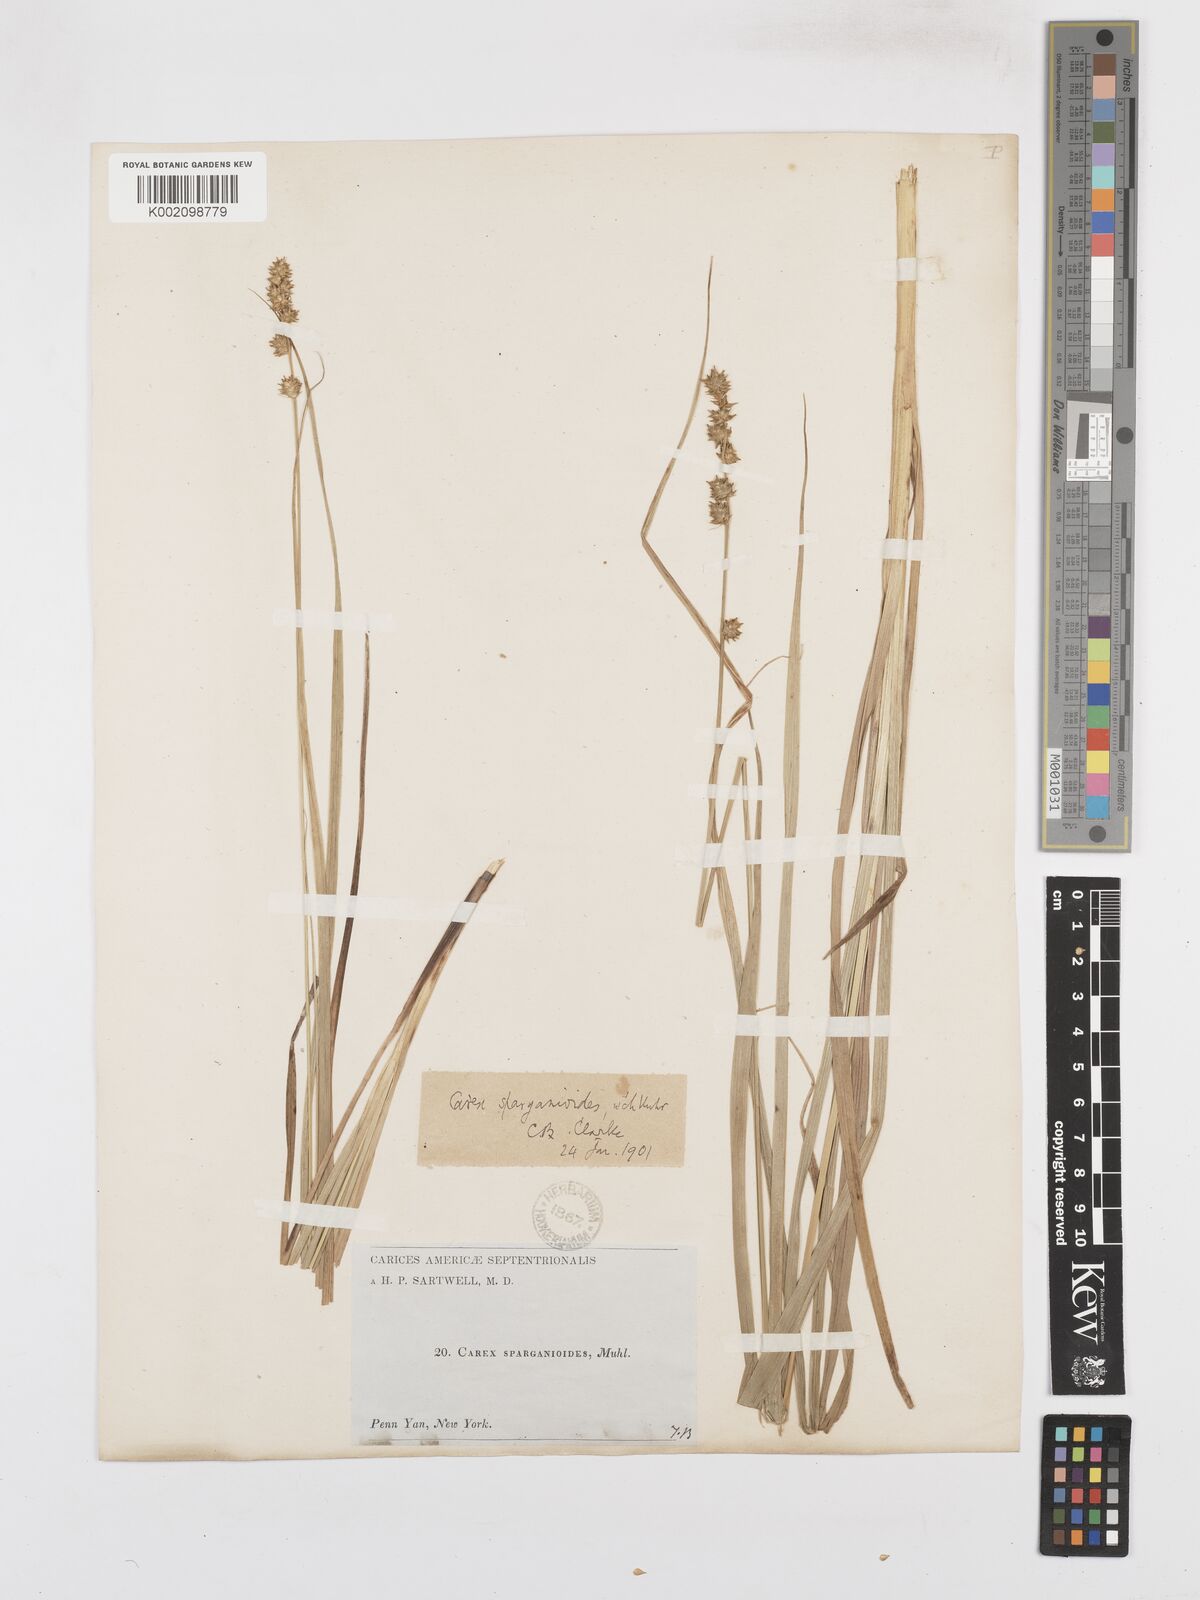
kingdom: Plantae
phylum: Tracheophyta
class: Liliopsida
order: Poales
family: Cyperaceae
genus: Carex
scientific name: Carex sparganioides
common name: Burreed sedge
